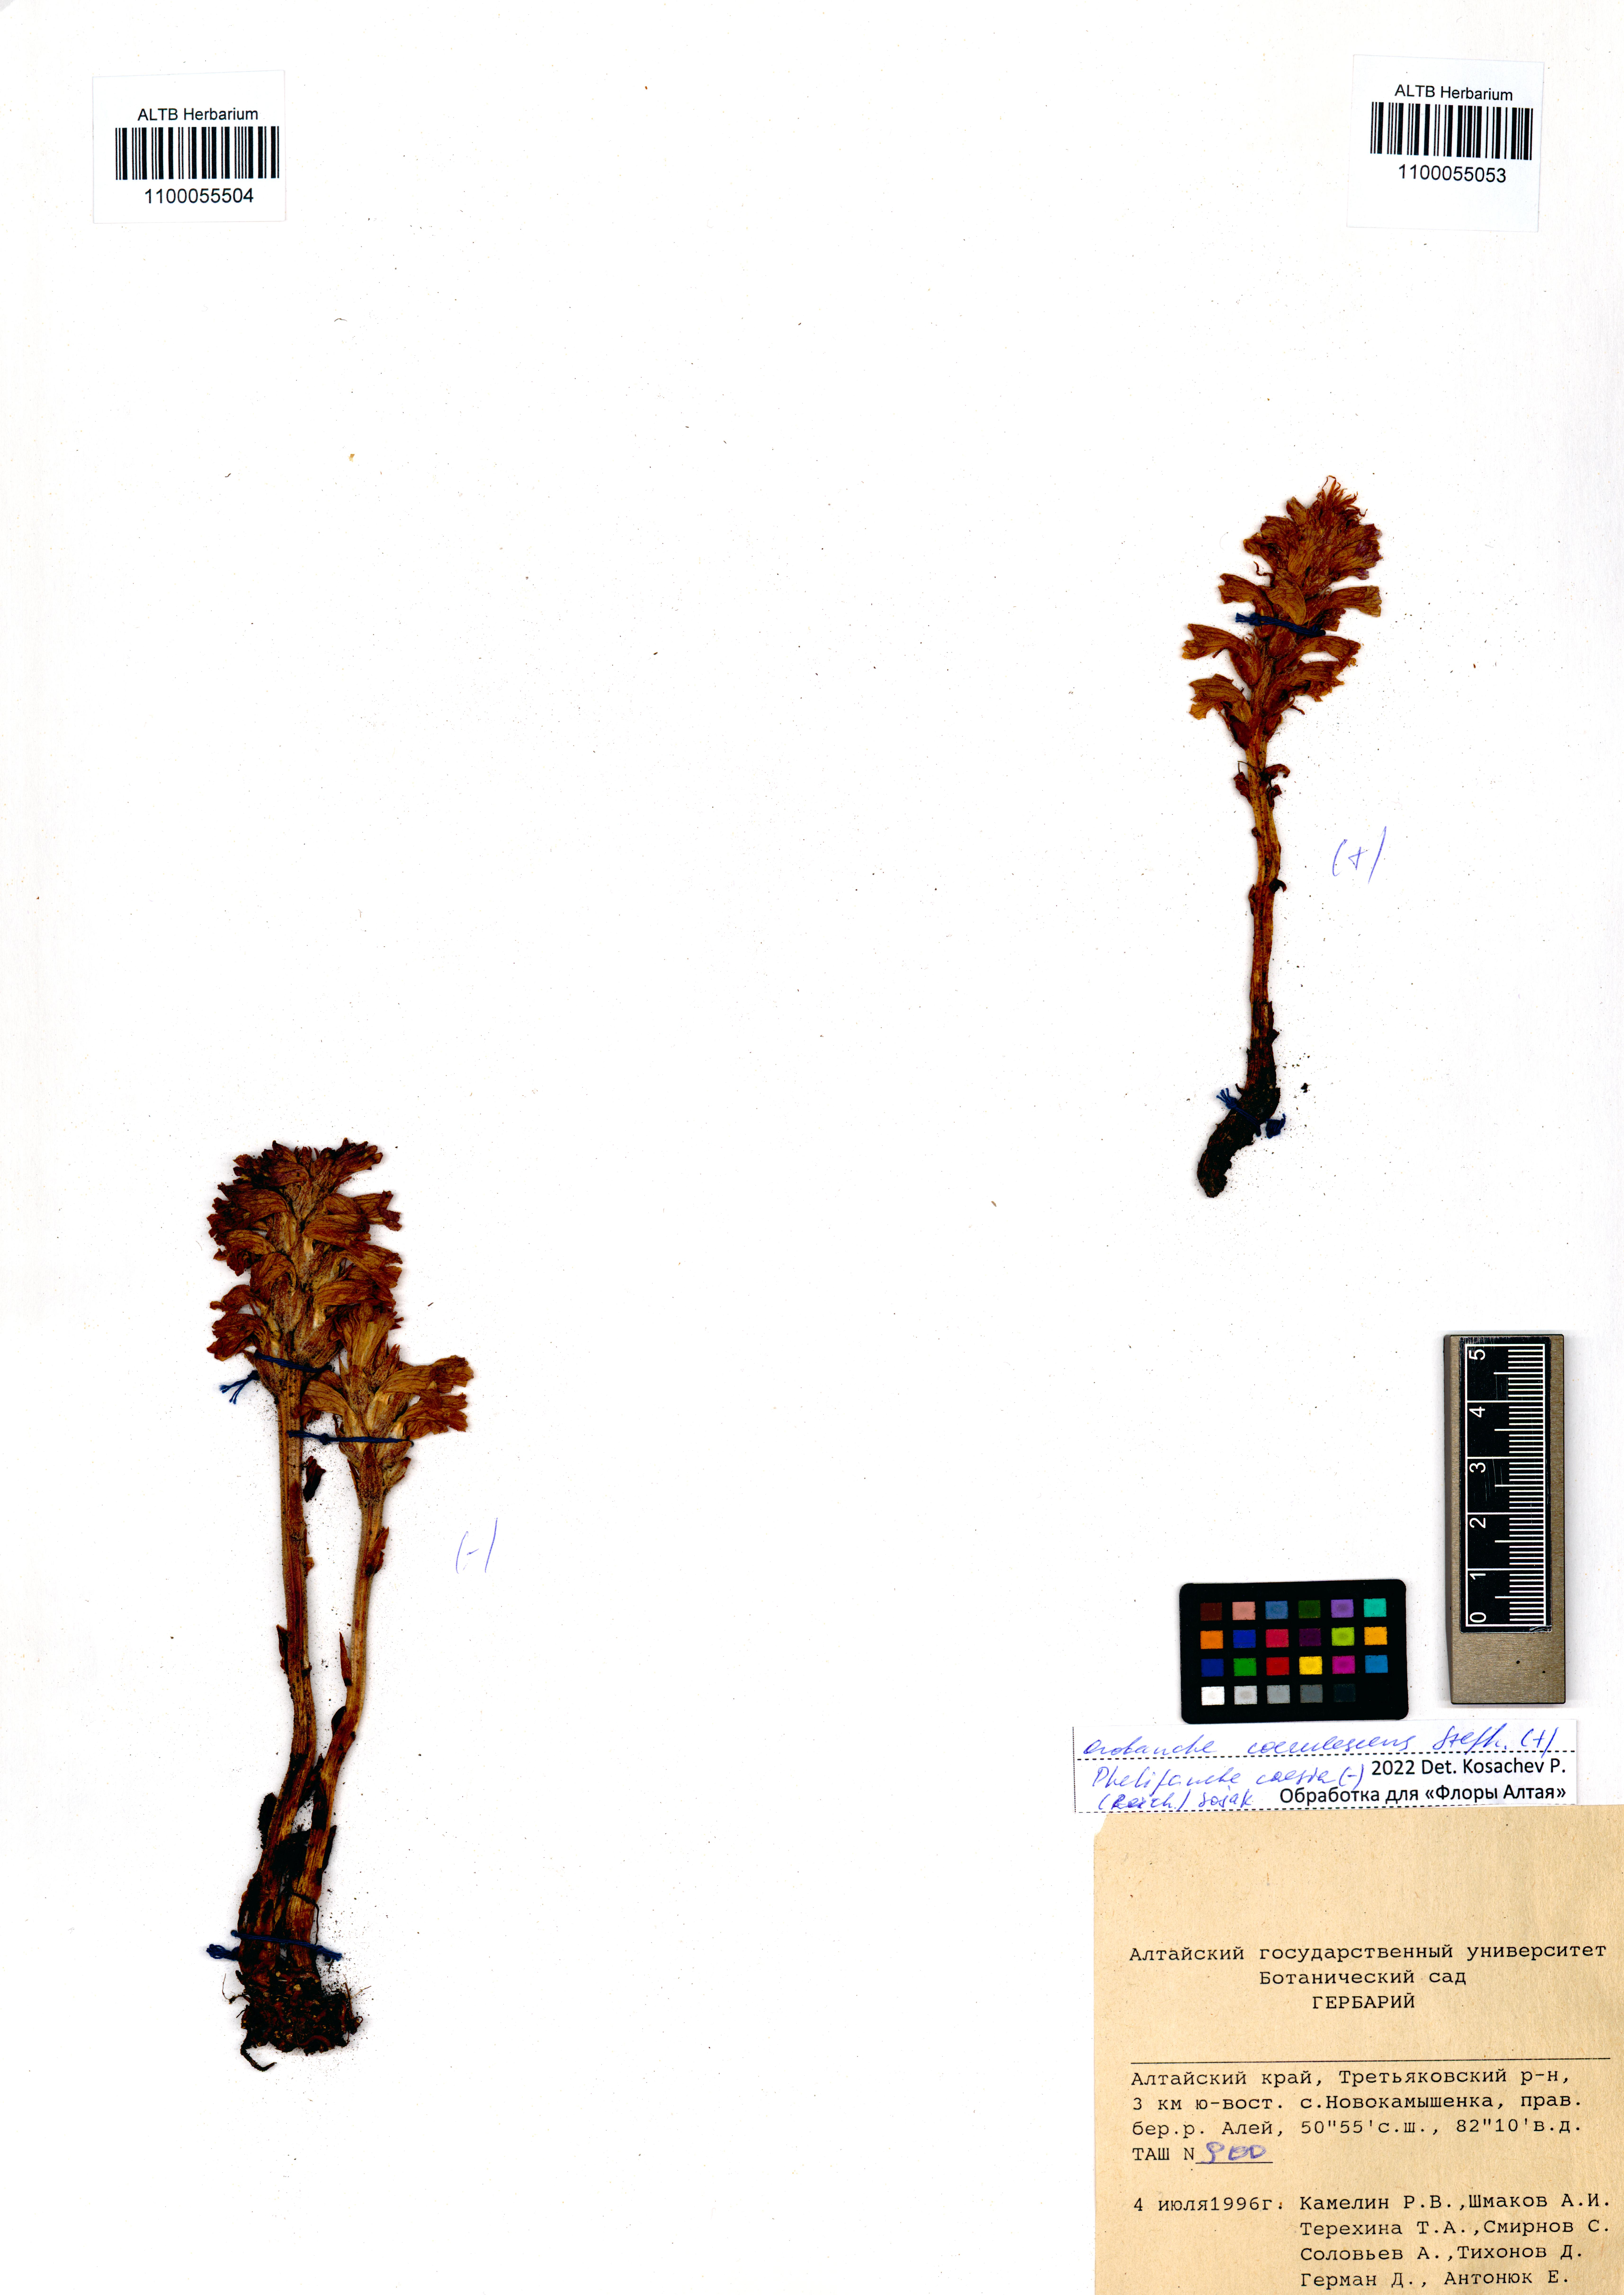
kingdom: Plantae
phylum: Tracheophyta
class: Magnoliopsida
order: Lamiales
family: Orobanchaceae
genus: Phelipanche
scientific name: Phelipanche caesia
